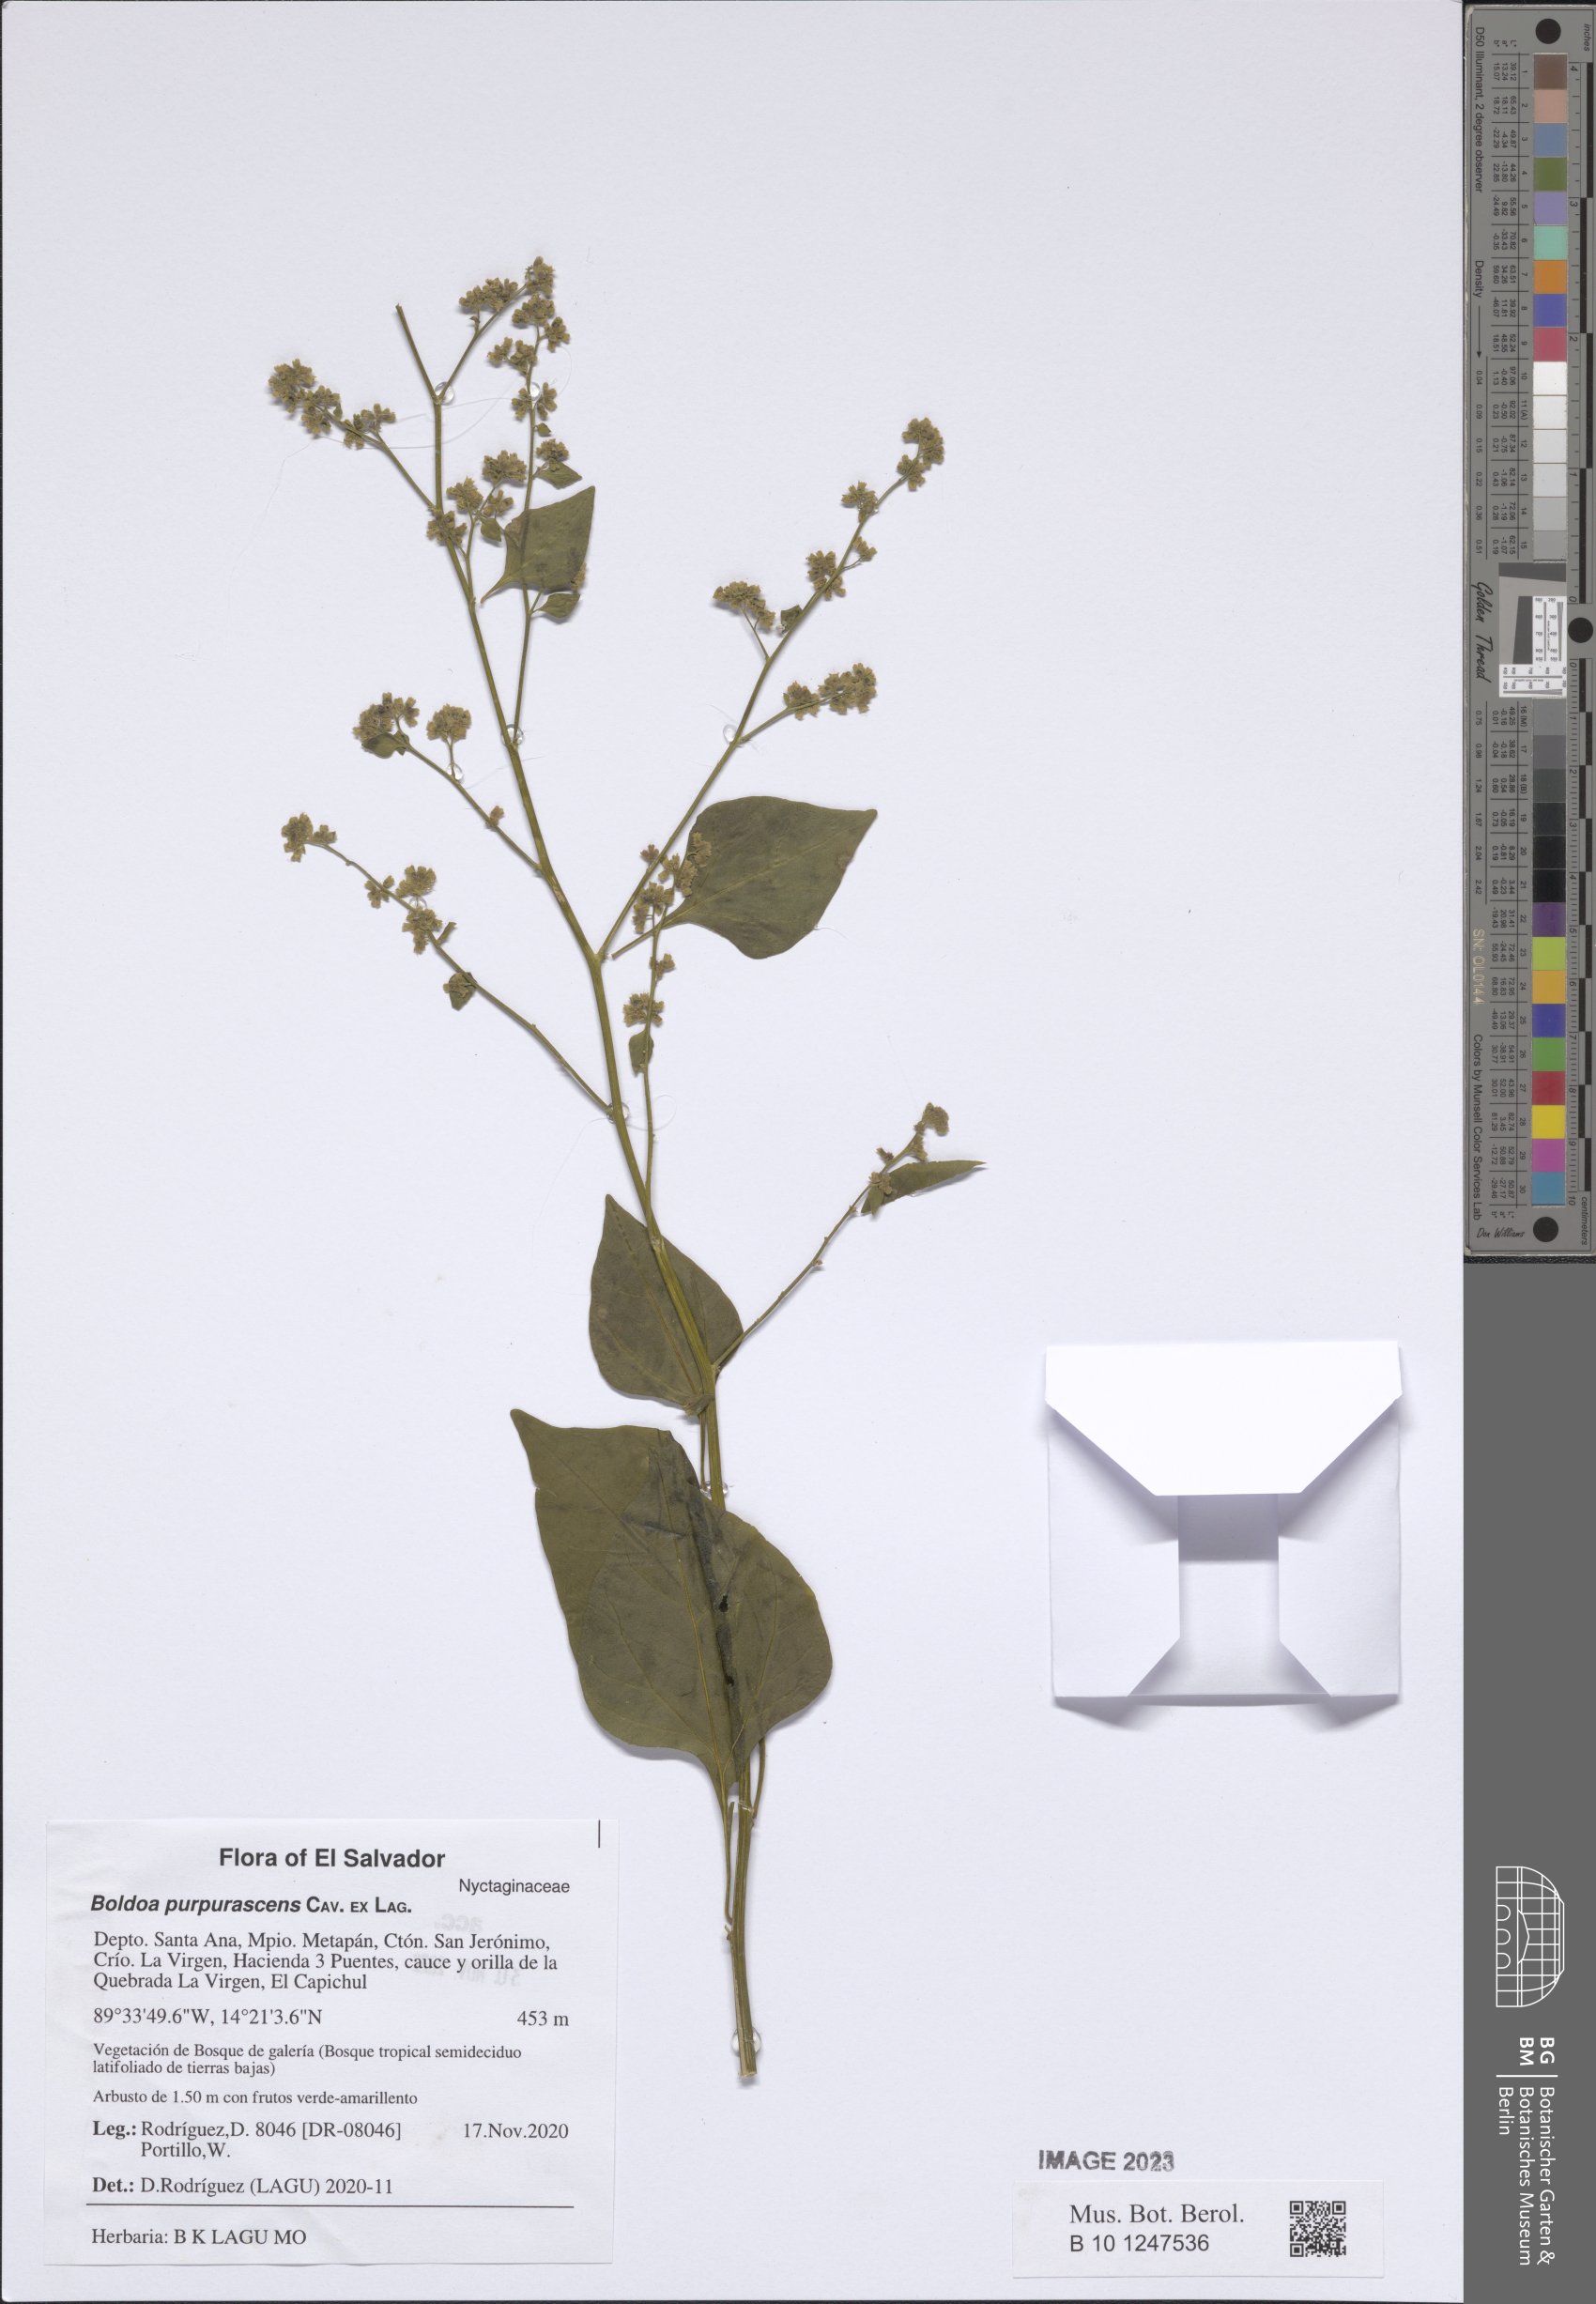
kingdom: Plantae
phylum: Tracheophyta
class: Magnoliopsida
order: Caryophyllales
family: Nyctaginaceae
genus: Boldoa
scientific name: Boldoa purpurascens
